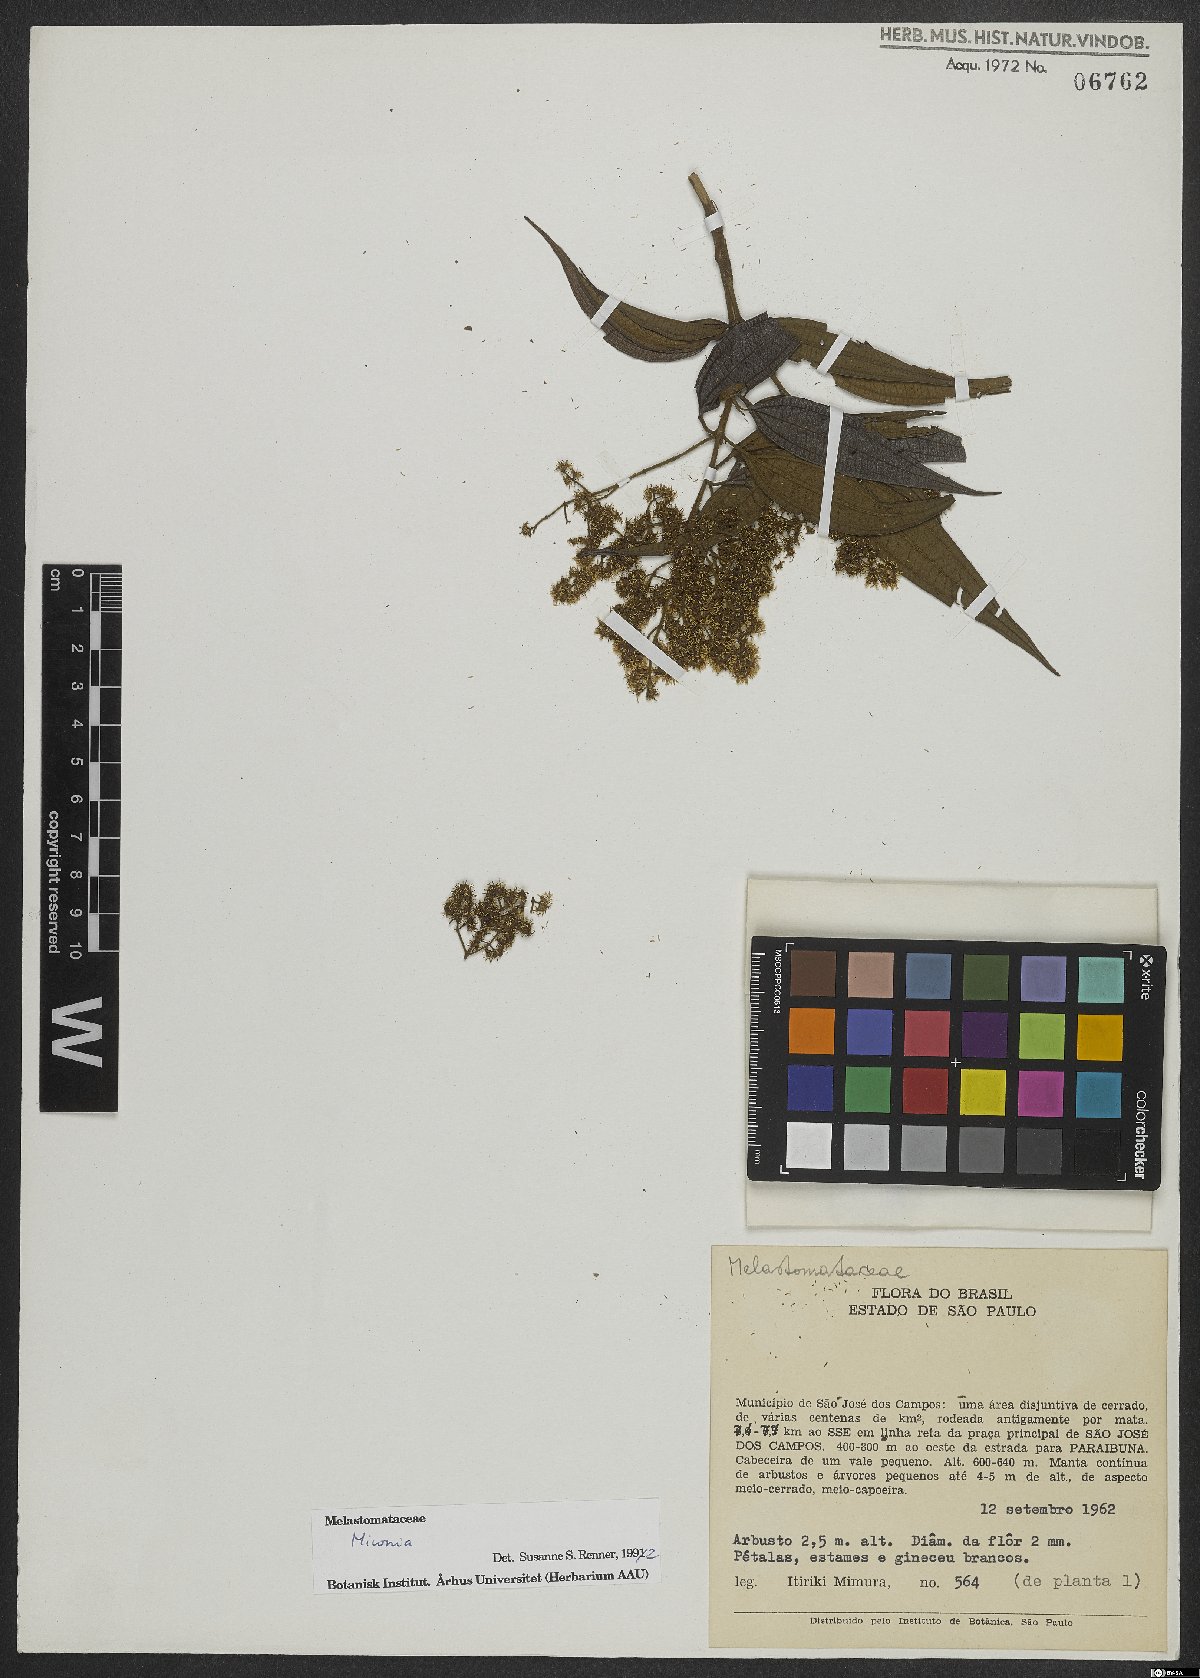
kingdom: Plantae
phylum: Tracheophyta
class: Magnoliopsida
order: Myrtales
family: Melastomataceae
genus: Miconia
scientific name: Miconia
